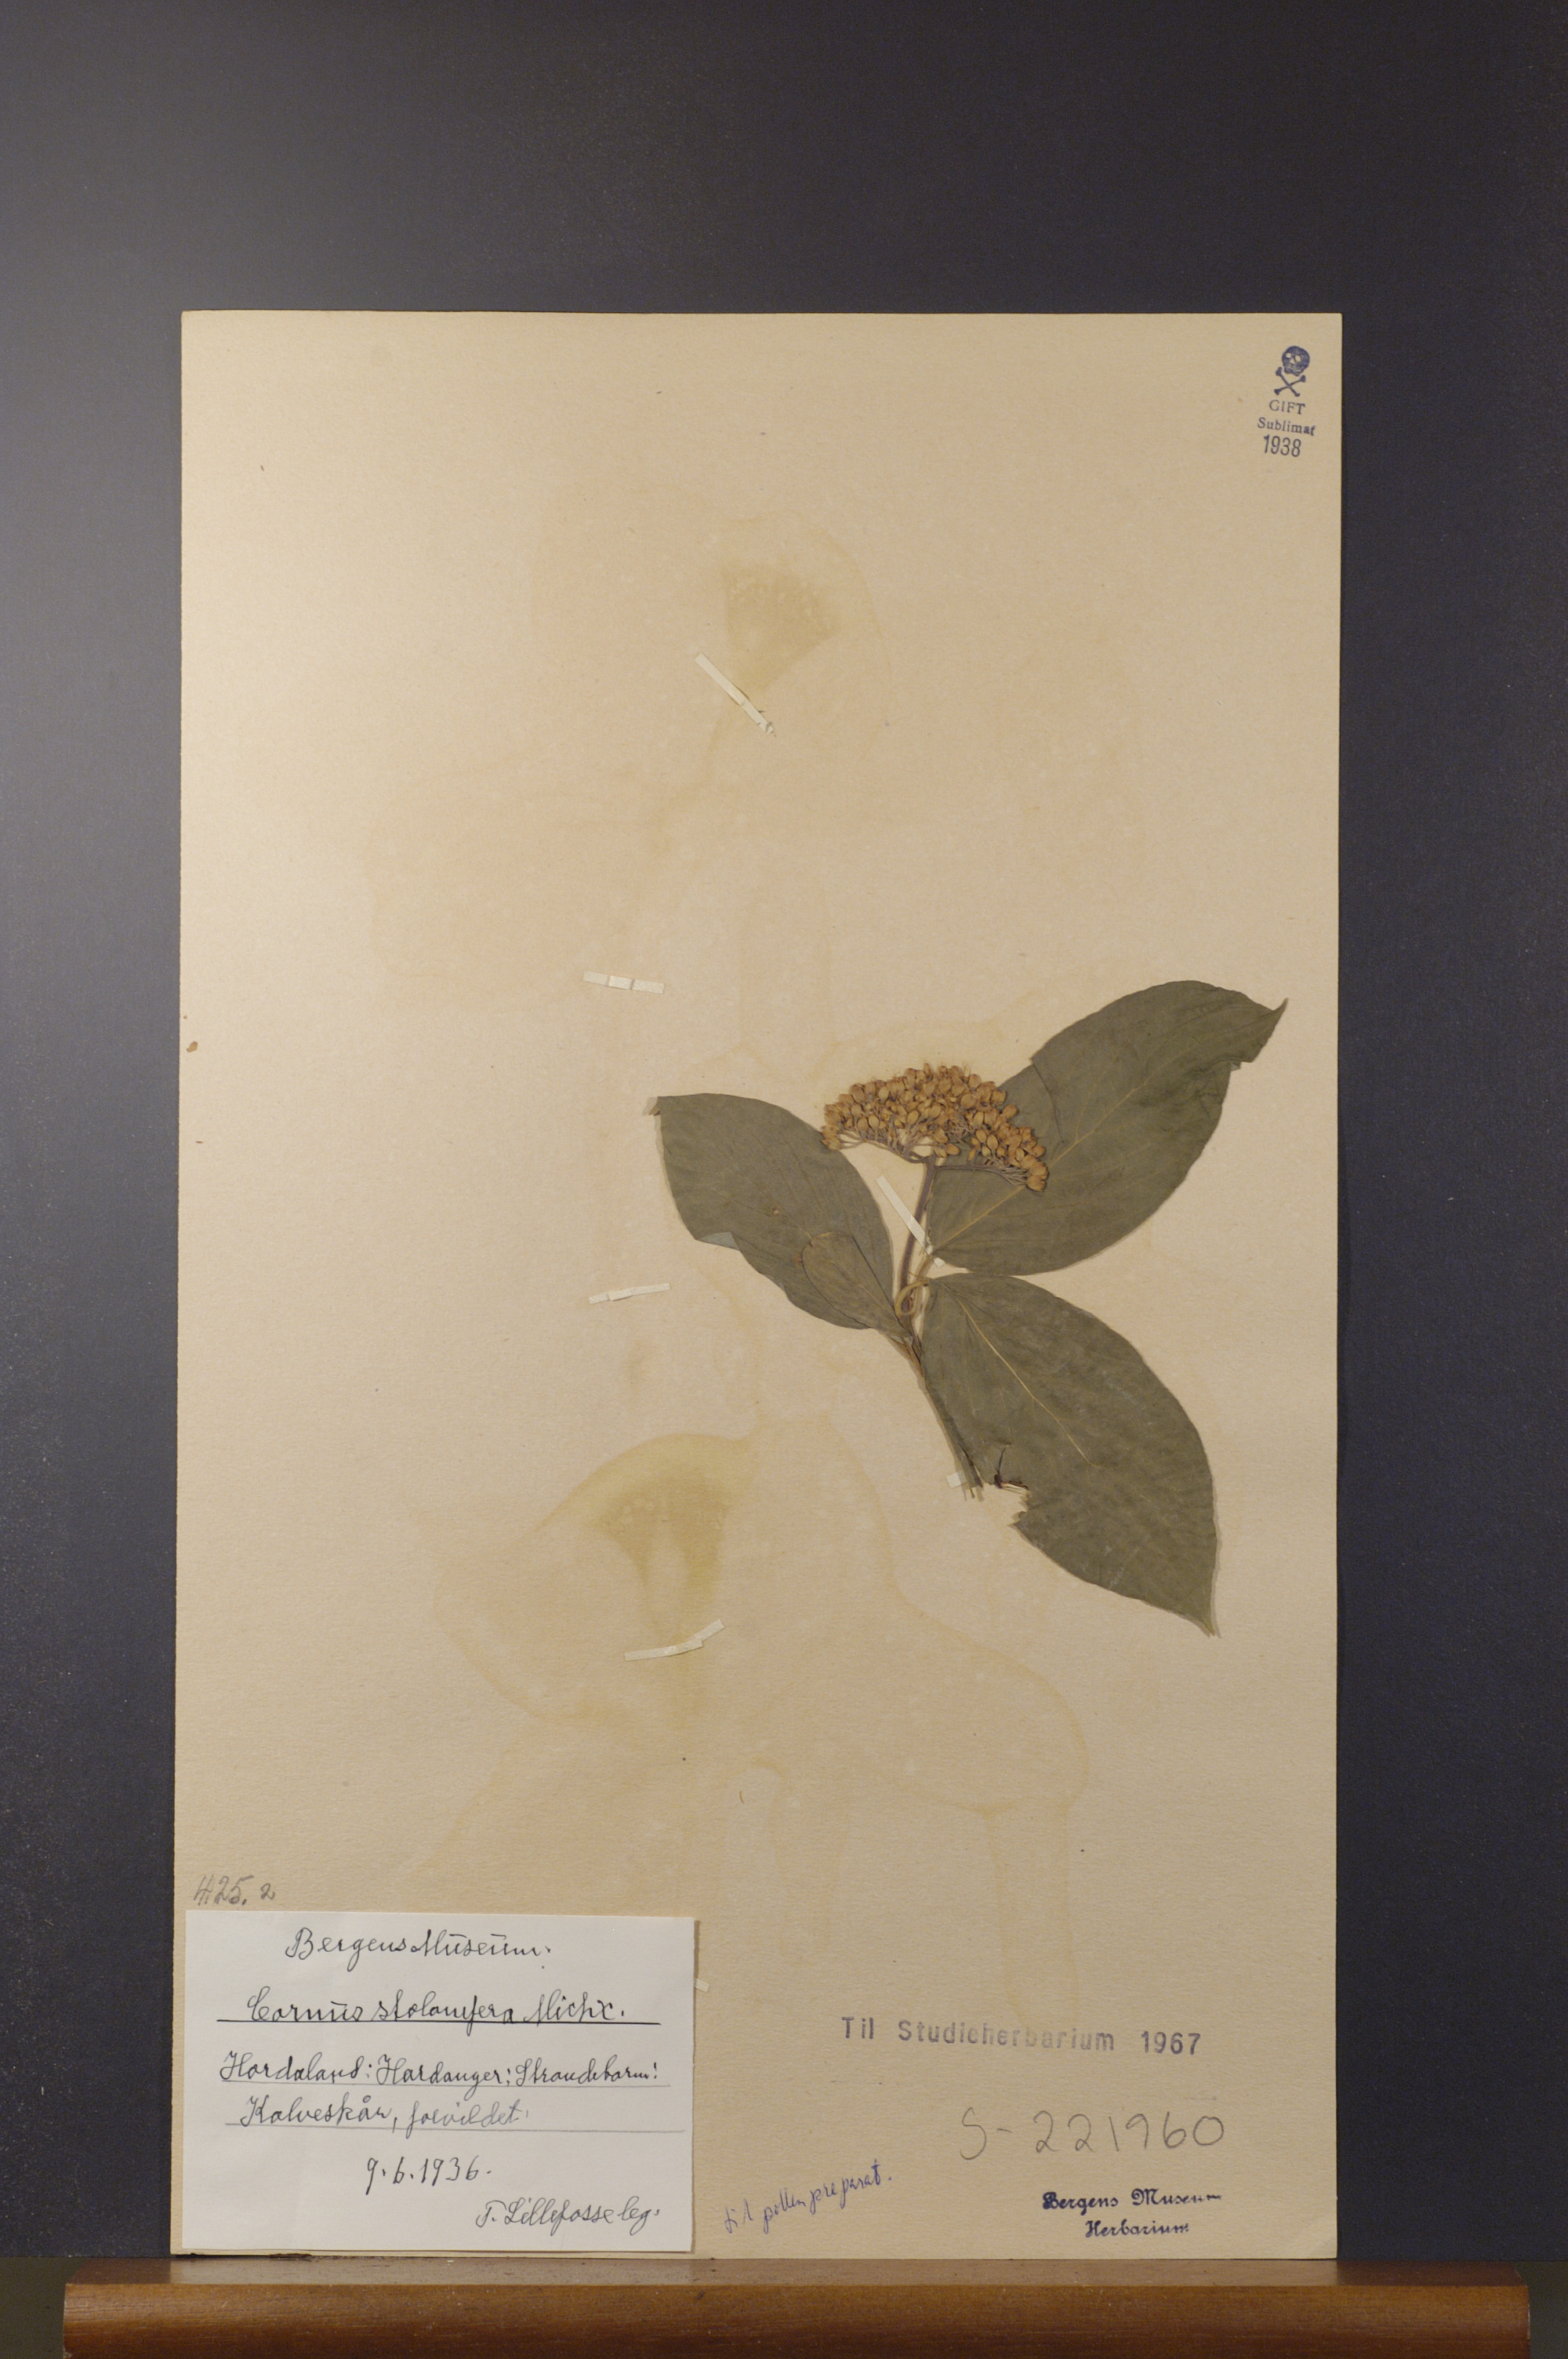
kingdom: Plantae
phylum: Tracheophyta
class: Magnoliopsida
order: Cornales
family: Cornaceae
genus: Cornus
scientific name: Cornus sericea
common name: Red-osier dogwood
